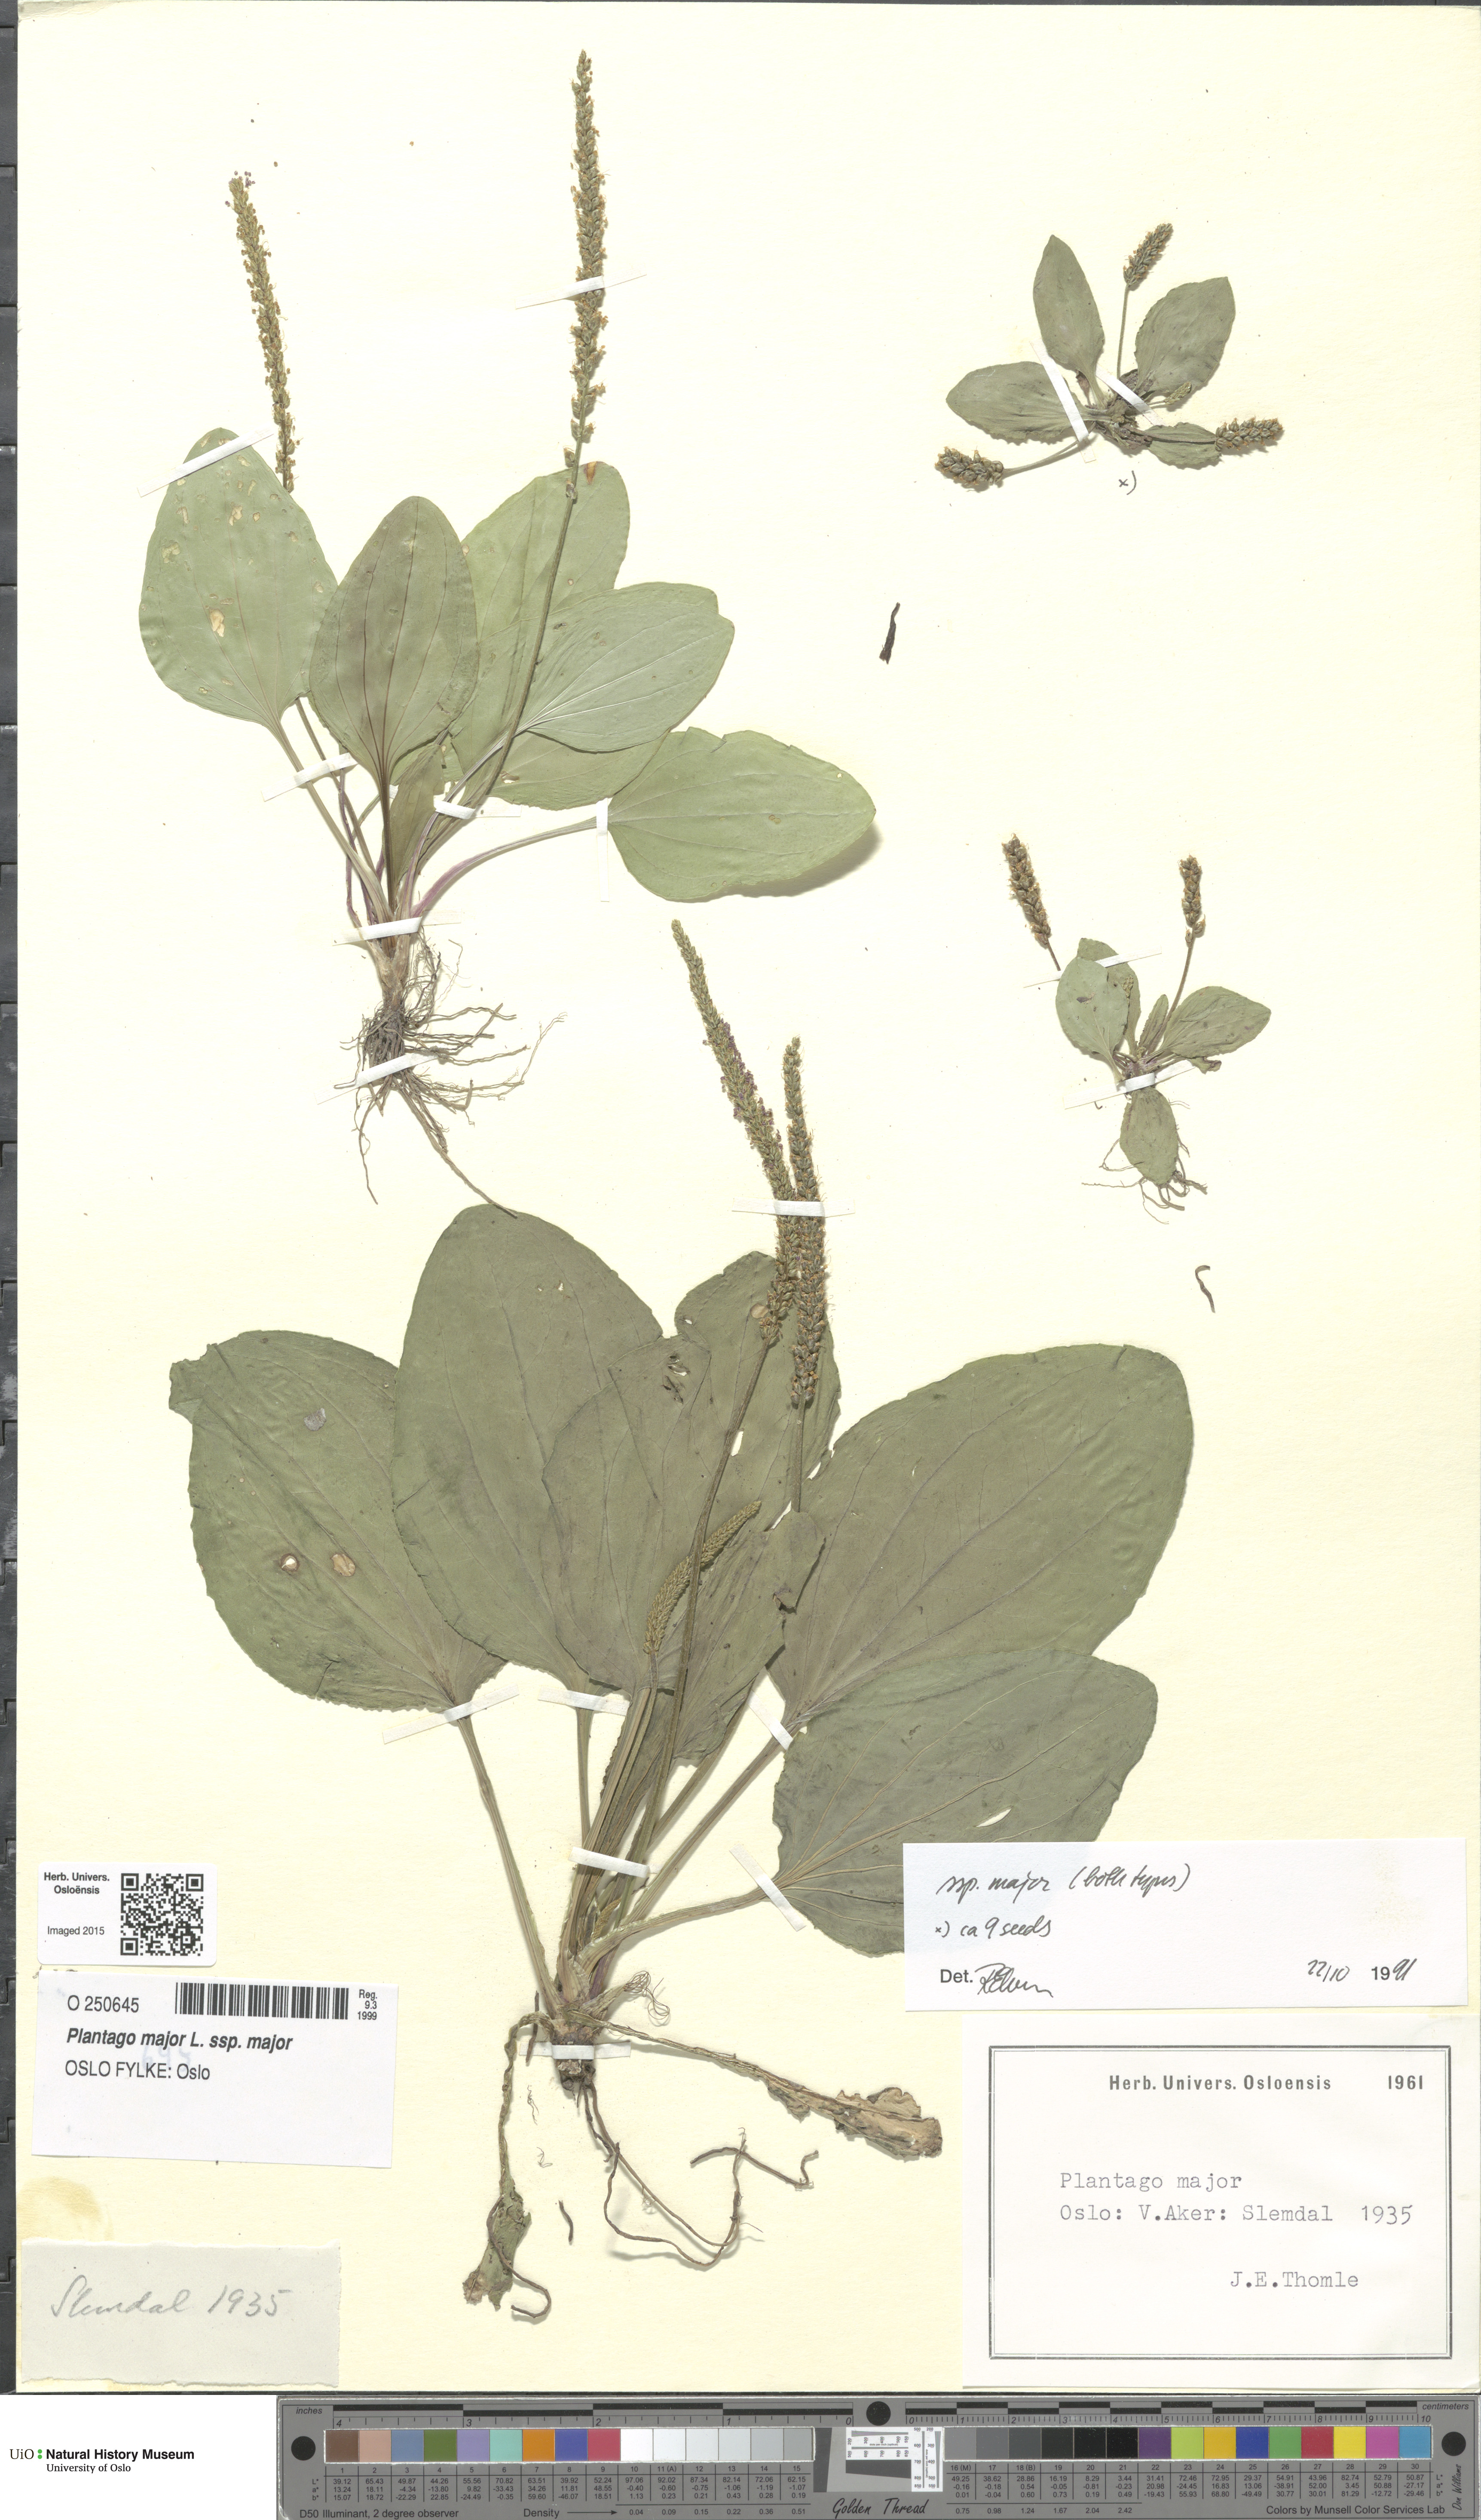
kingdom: Plantae
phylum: Tracheophyta
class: Magnoliopsida
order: Lamiales
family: Plantaginaceae
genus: Plantago
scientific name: Plantago major
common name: Common plantain
